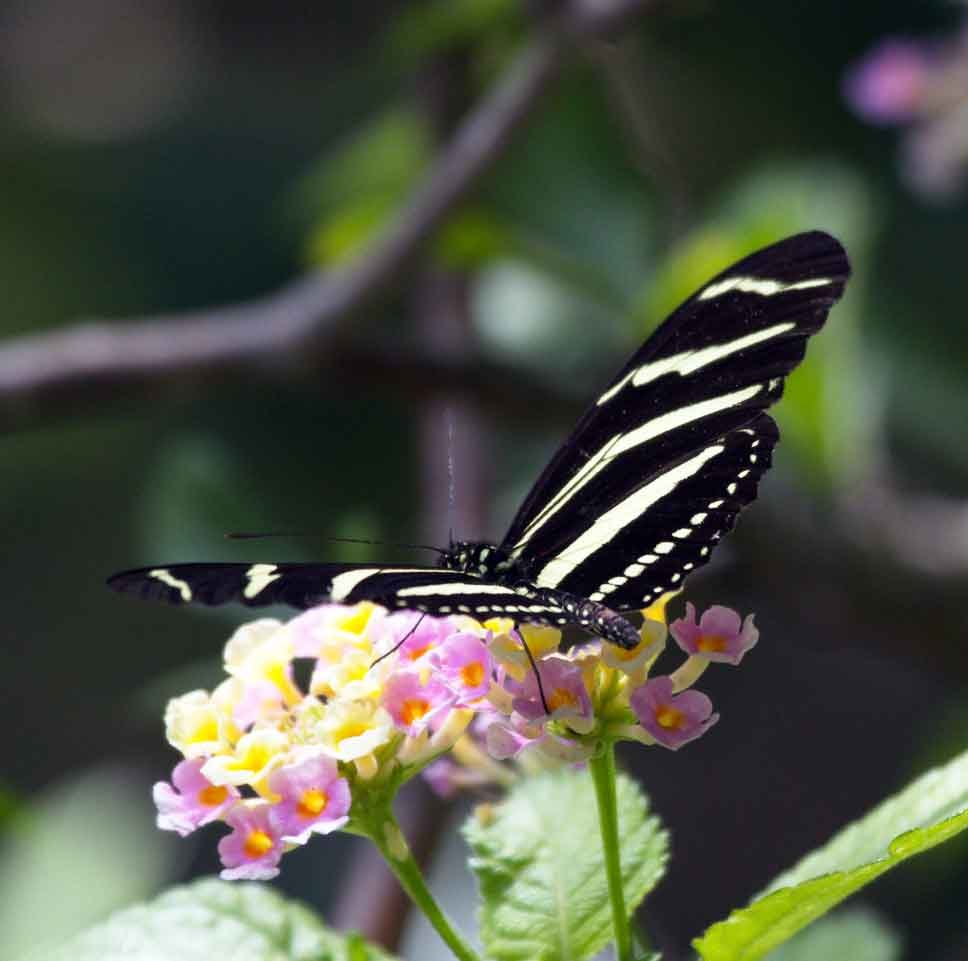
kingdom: Animalia
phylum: Arthropoda
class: Insecta
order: Lepidoptera
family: Nymphalidae
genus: Heliconius
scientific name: Heliconius charithonia
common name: Zebra Longwing
